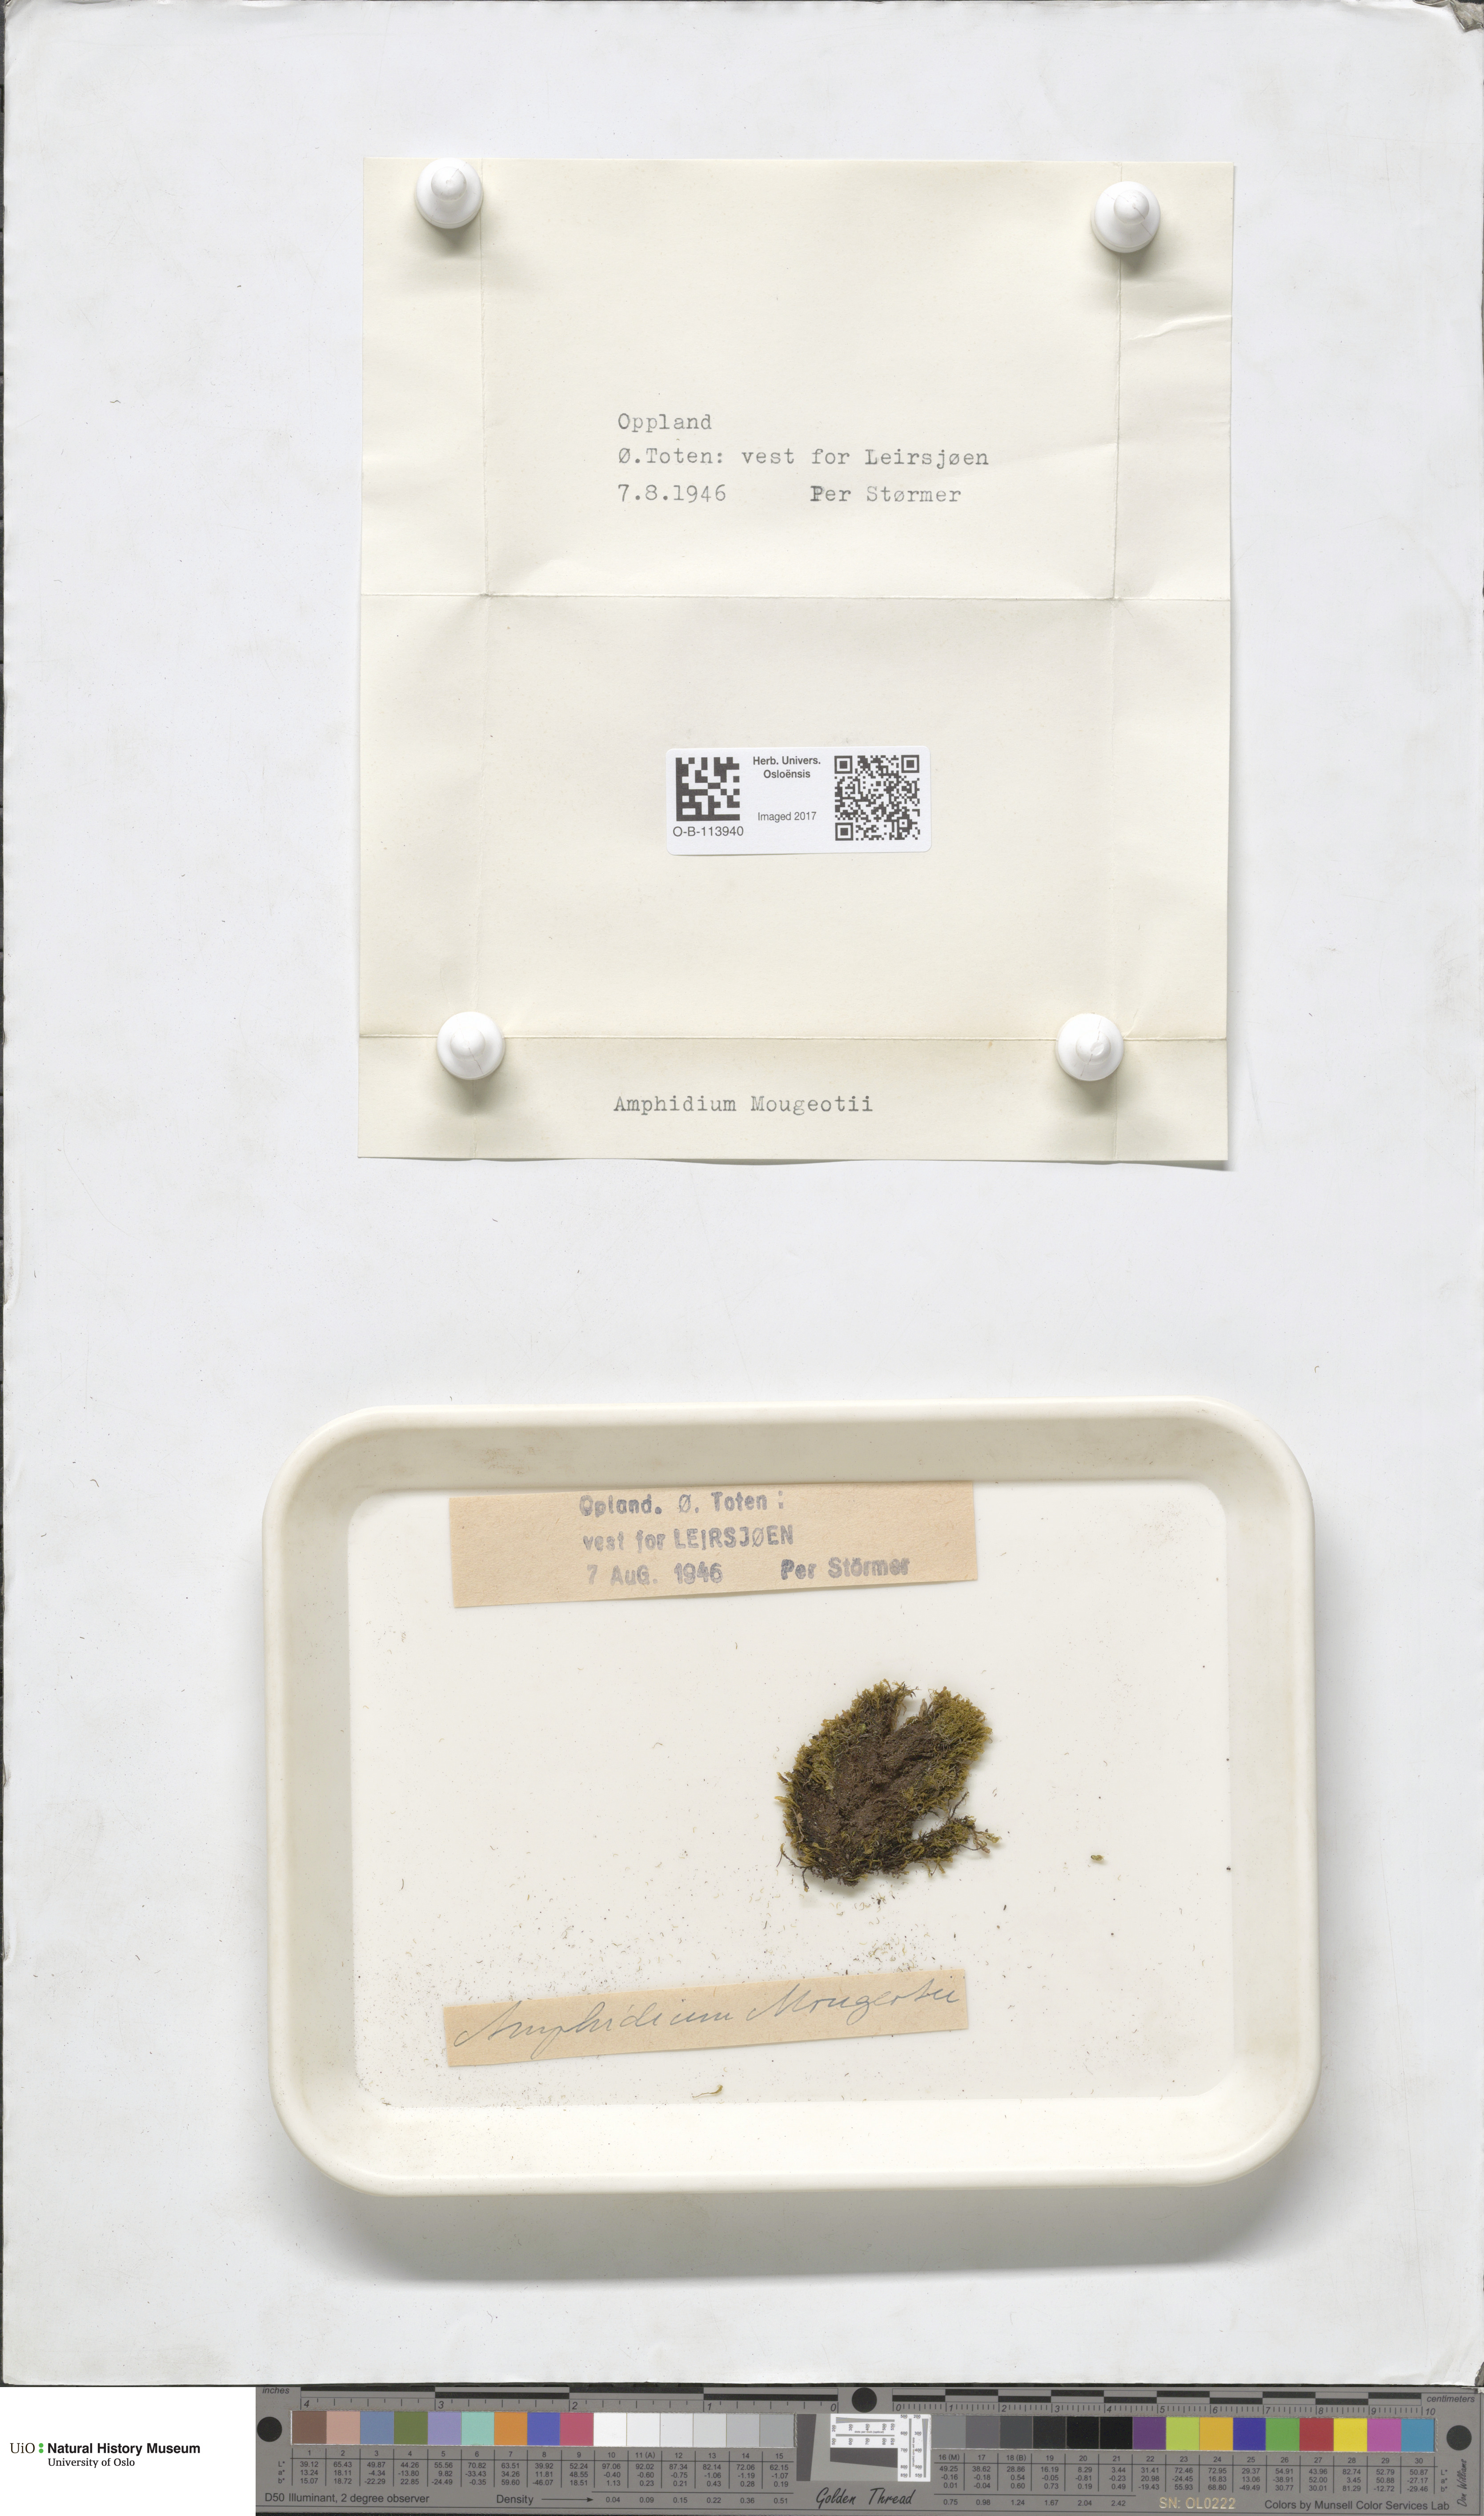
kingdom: Plantae
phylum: Bryophyta
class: Bryopsida
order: Dicranales
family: Amphidiaceae
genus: Amphidium
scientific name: Amphidium mougeotii
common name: Mougeot's yoke moss
